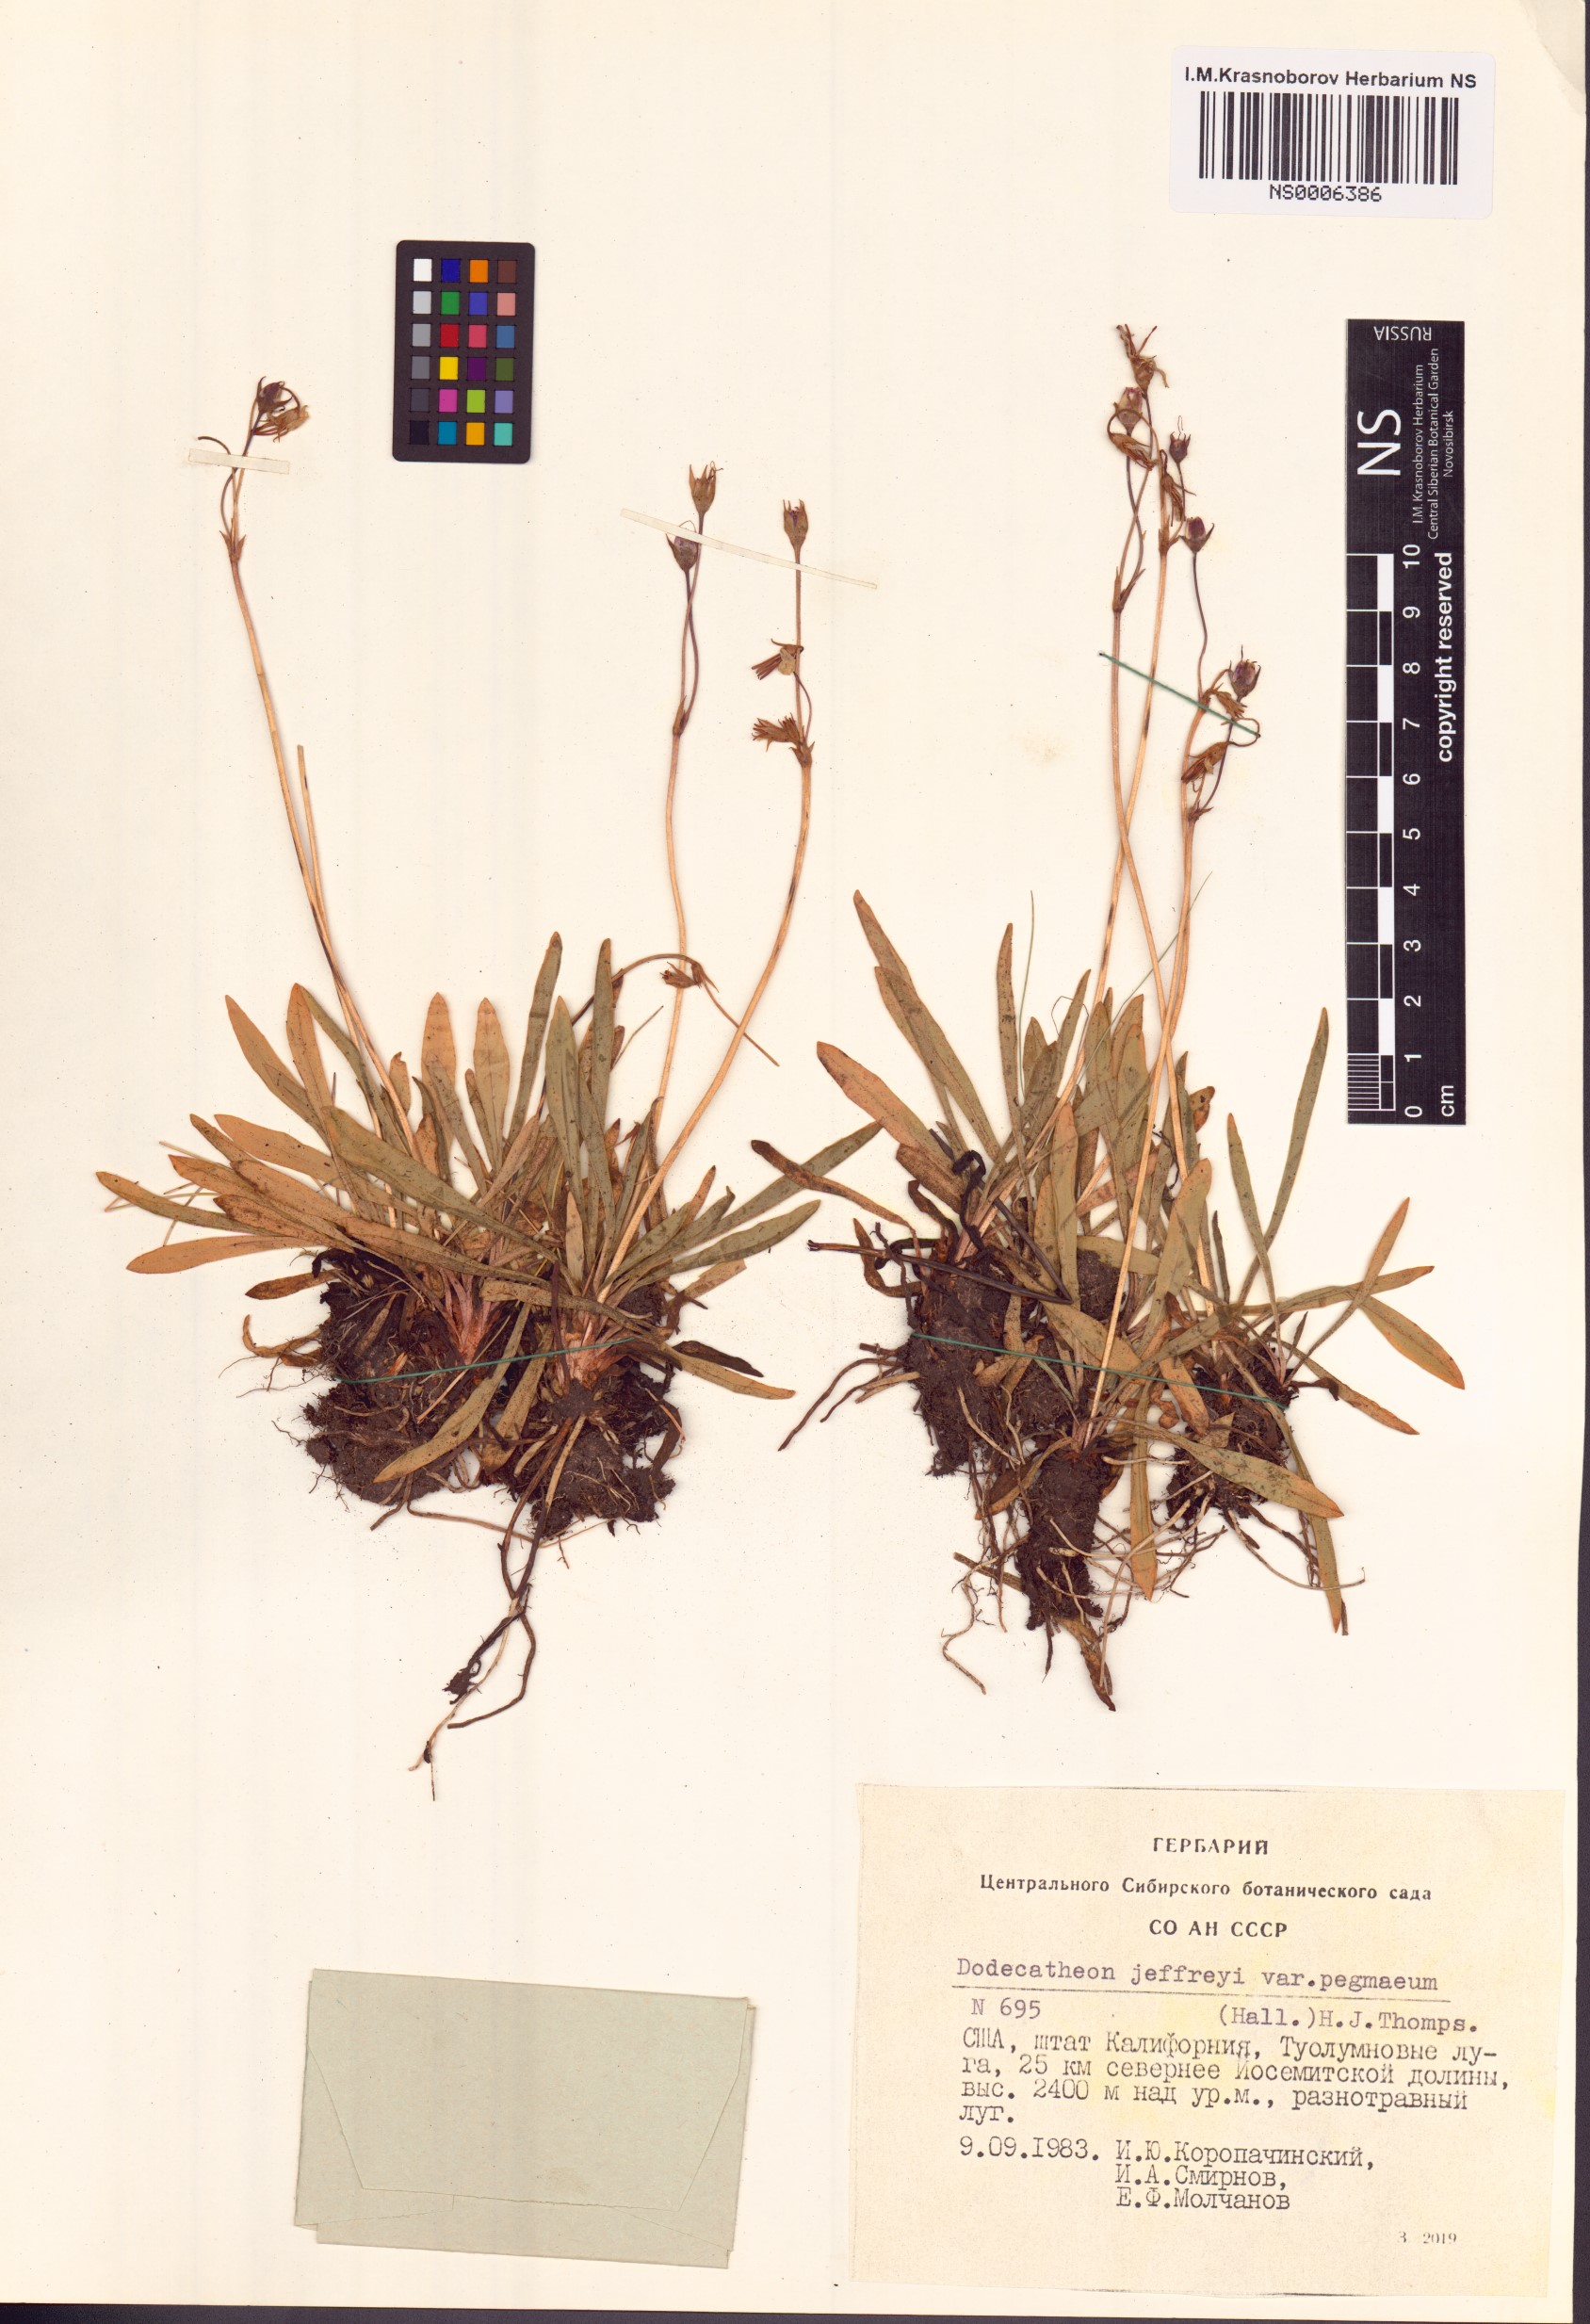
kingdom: Plantae
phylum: Tracheophyta
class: Magnoliopsida
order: Ericales
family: Primulaceae
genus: Dodecatheon
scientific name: Dodecatheon jeffreyanum
